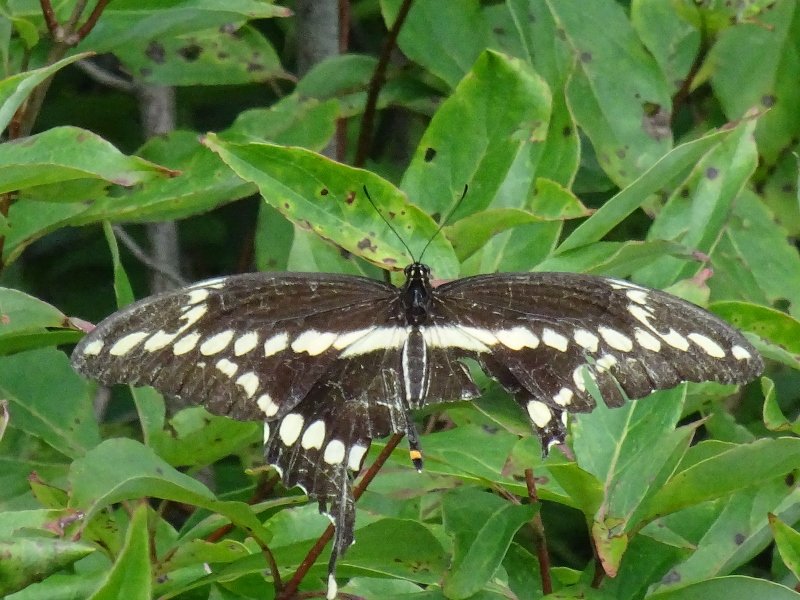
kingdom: Animalia
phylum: Arthropoda
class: Insecta
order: Lepidoptera
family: Papilionidae
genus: Papilio
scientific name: Papilio cresphontes
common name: Eastern Giant Swallowtail
